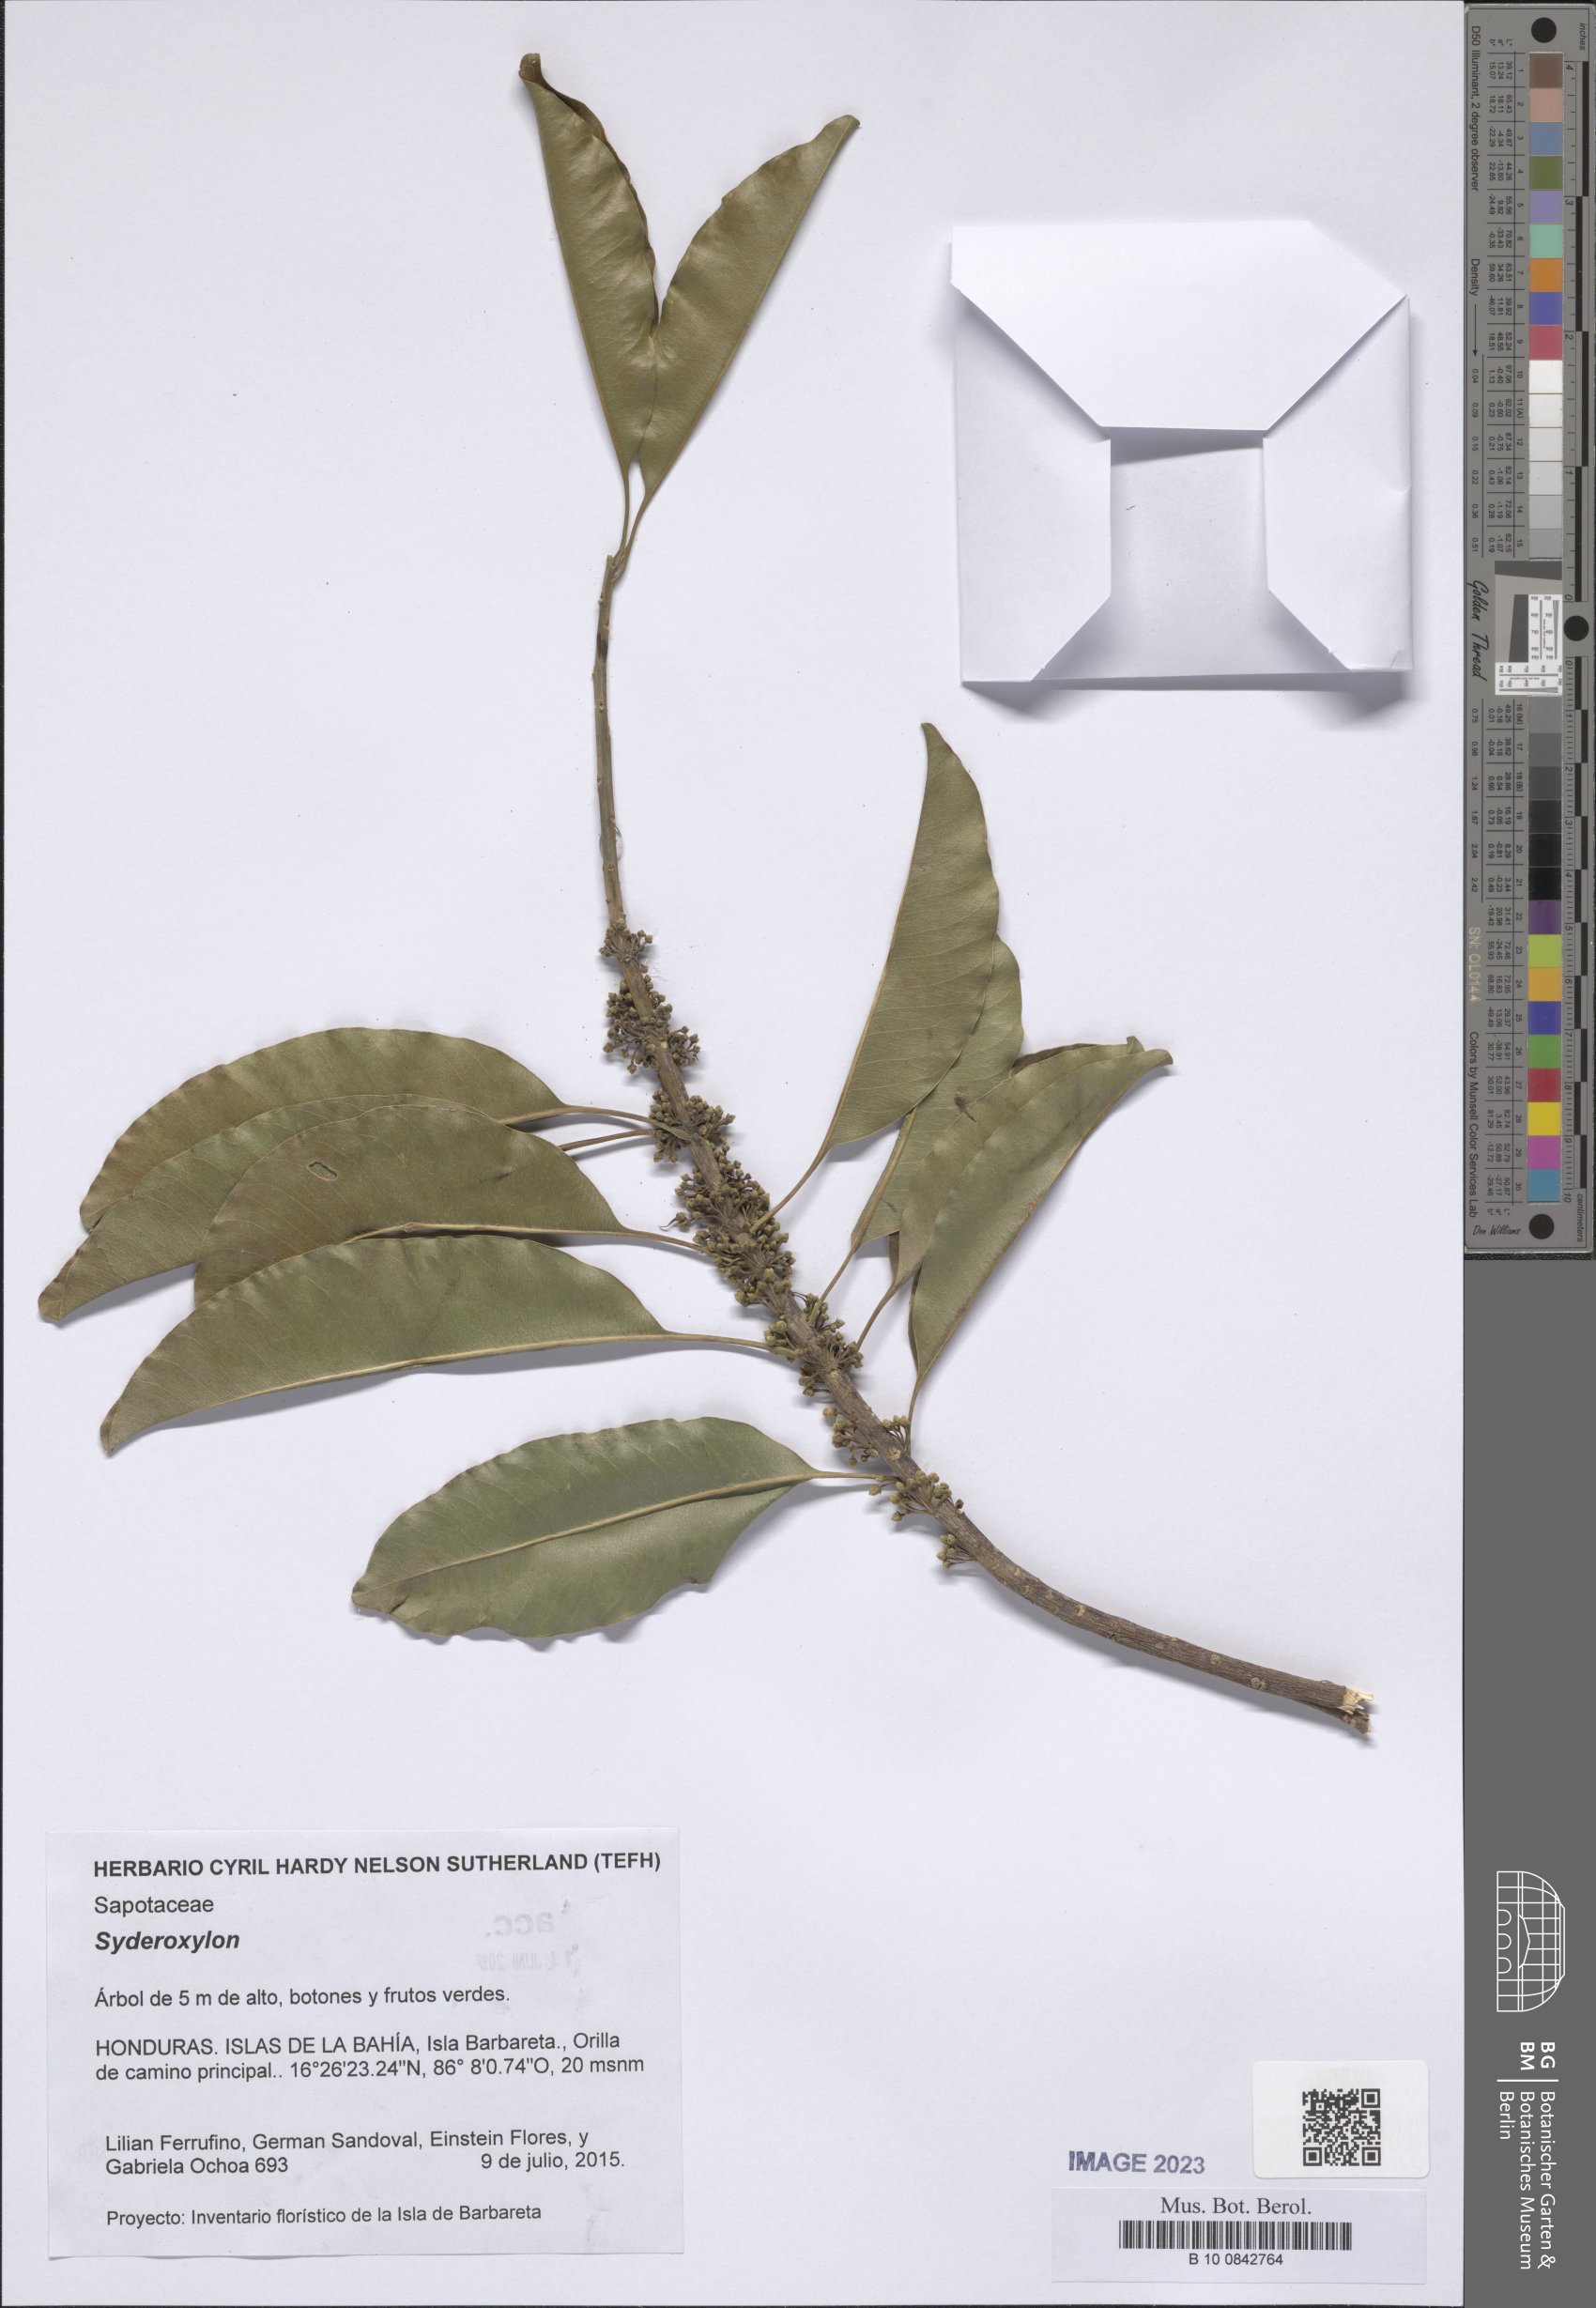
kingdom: Plantae
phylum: Tracheophyta
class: Magnoliopsida
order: Ericales
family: Sapotaceae
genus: Sideroxylon
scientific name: Sideroxylon
